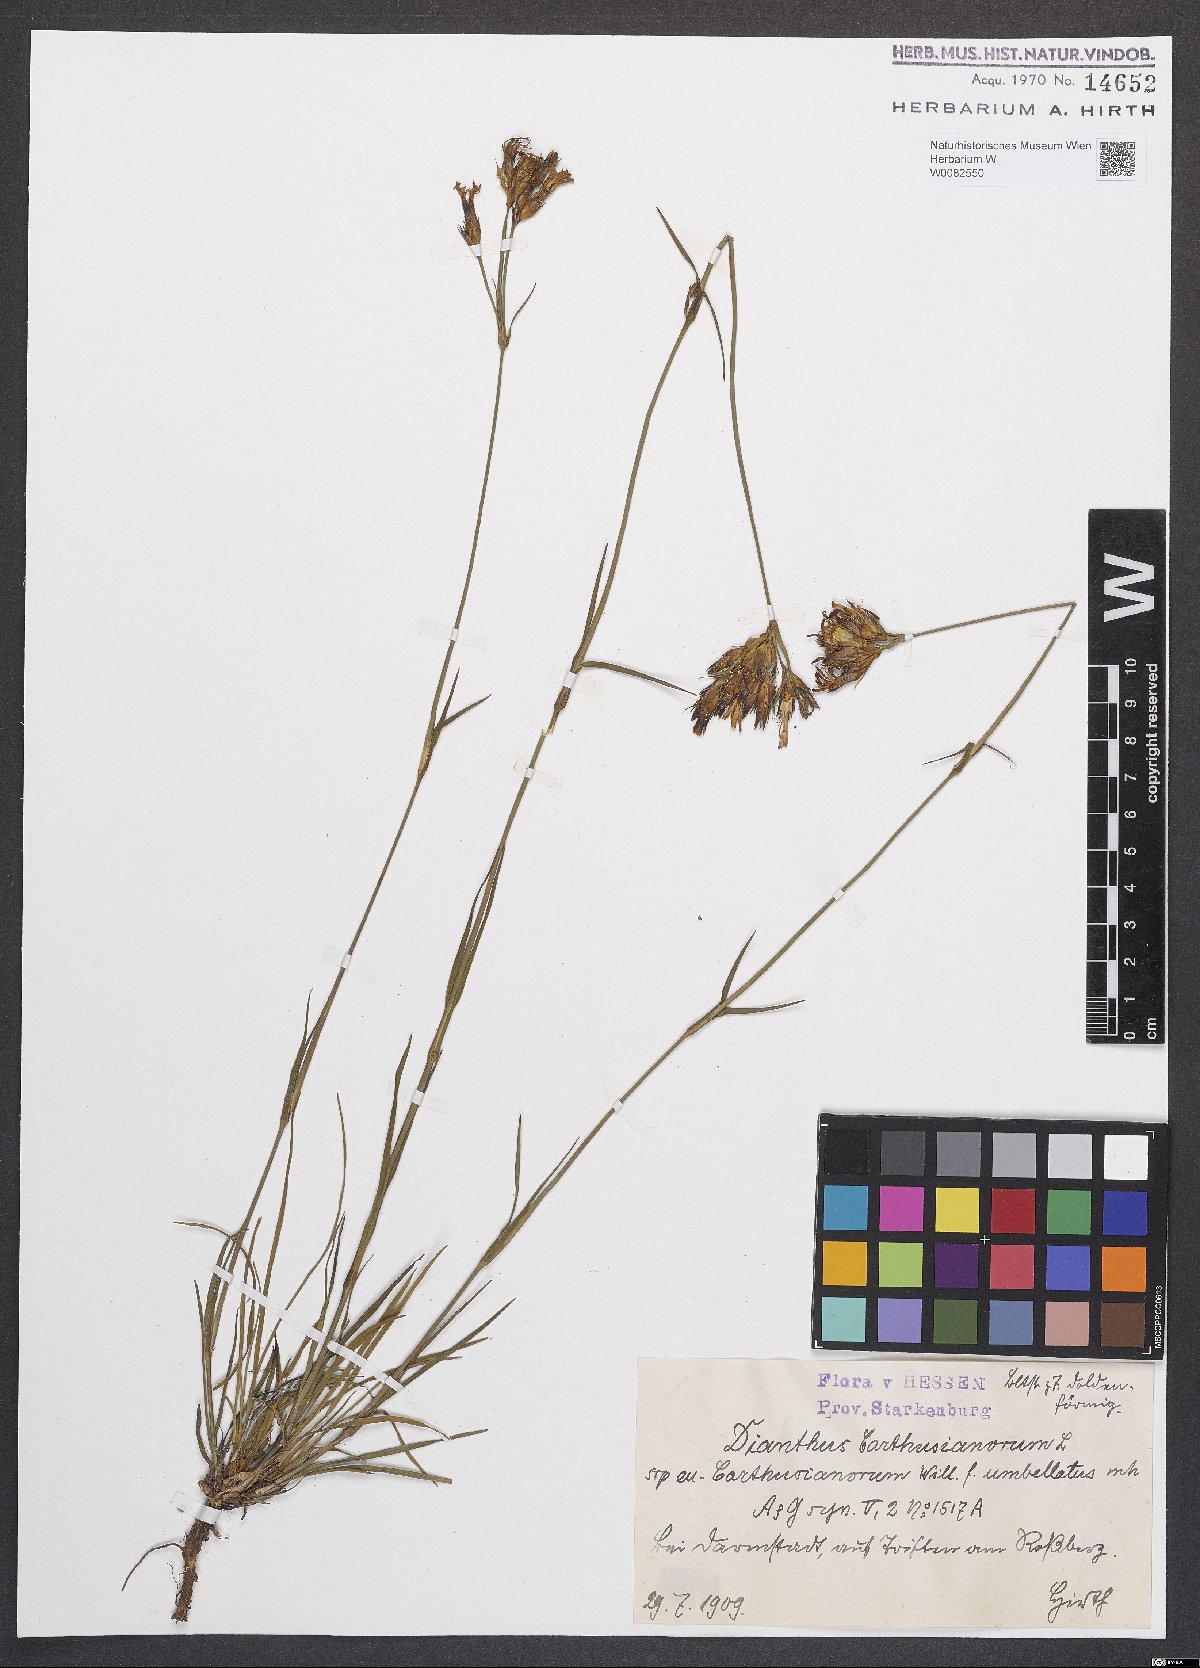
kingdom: Plantae
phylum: Tracheophyta
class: Magnoliopsida
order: Caryophyllales
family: Caryophyllaceae
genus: Dianthus
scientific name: Dianthus carthusianorum
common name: Carthusian pink
